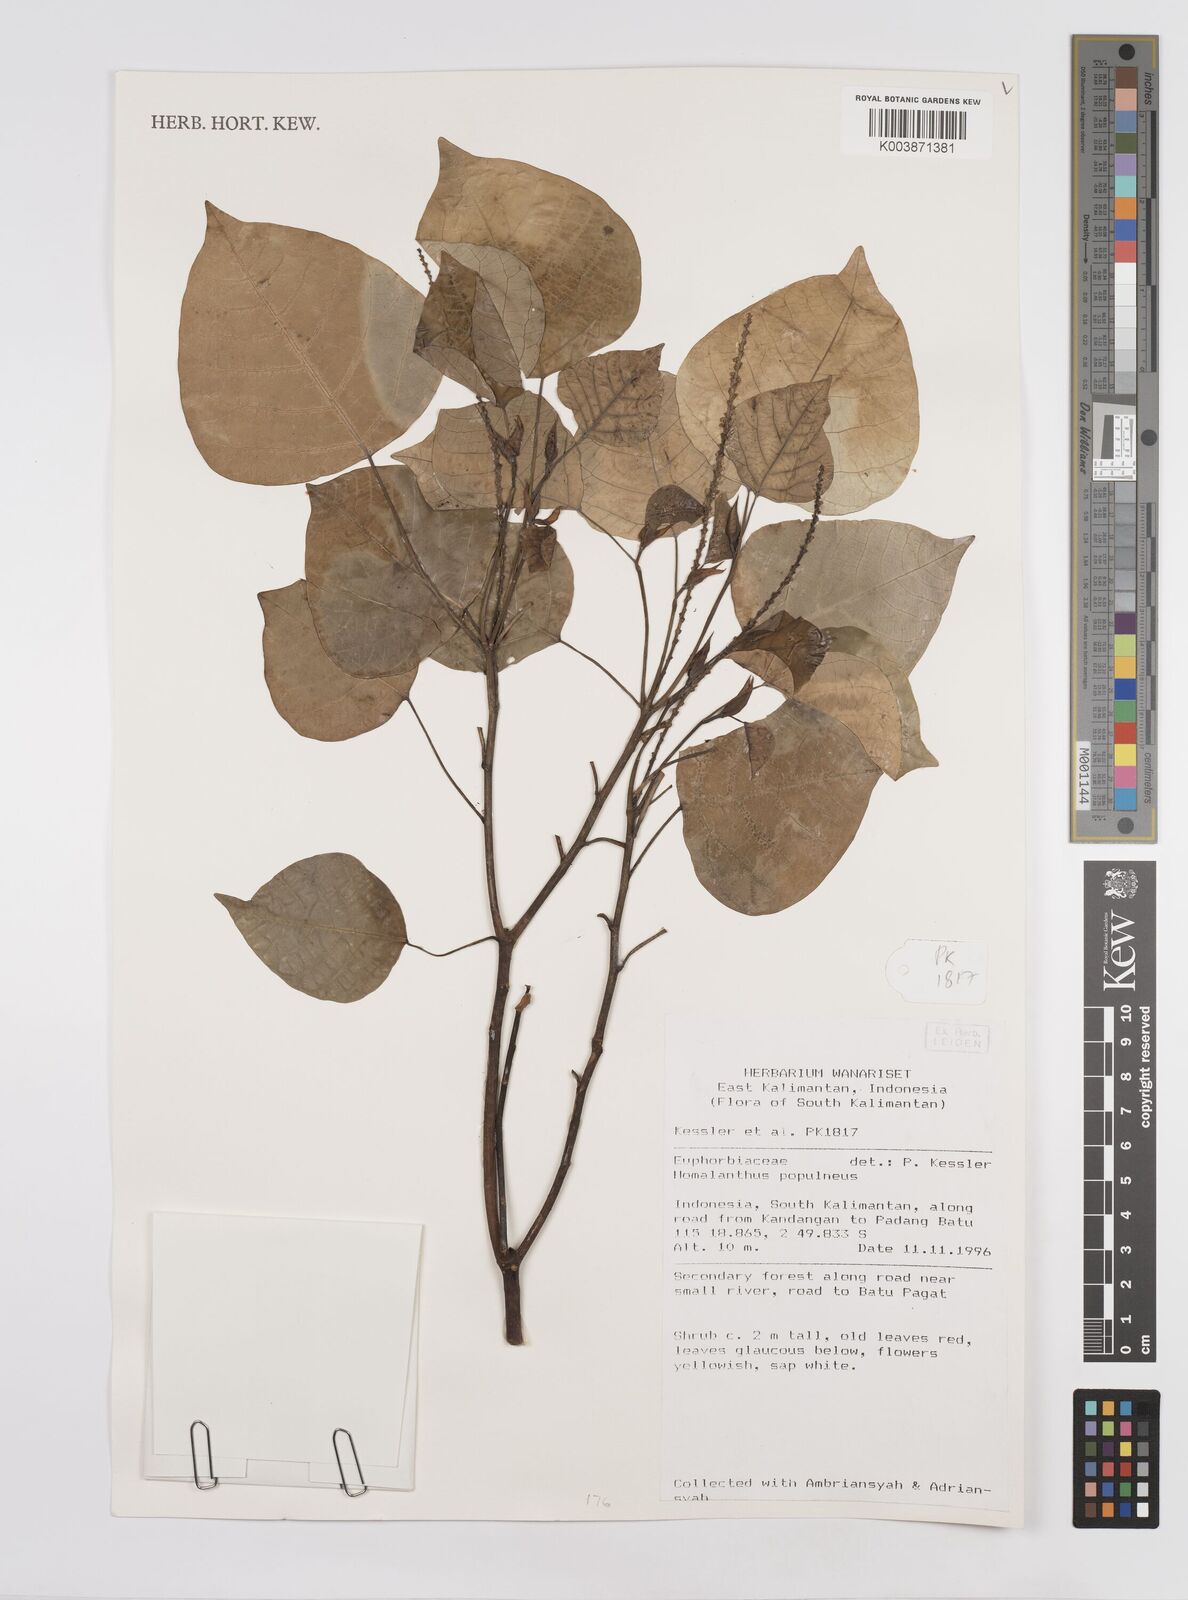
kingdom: Plantae
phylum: Tracheophyta
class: Magnoliopsida
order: Malpighiales
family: Euphorbiaceae
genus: Homalanthus
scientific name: Homalanthus populneus
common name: Spurge
